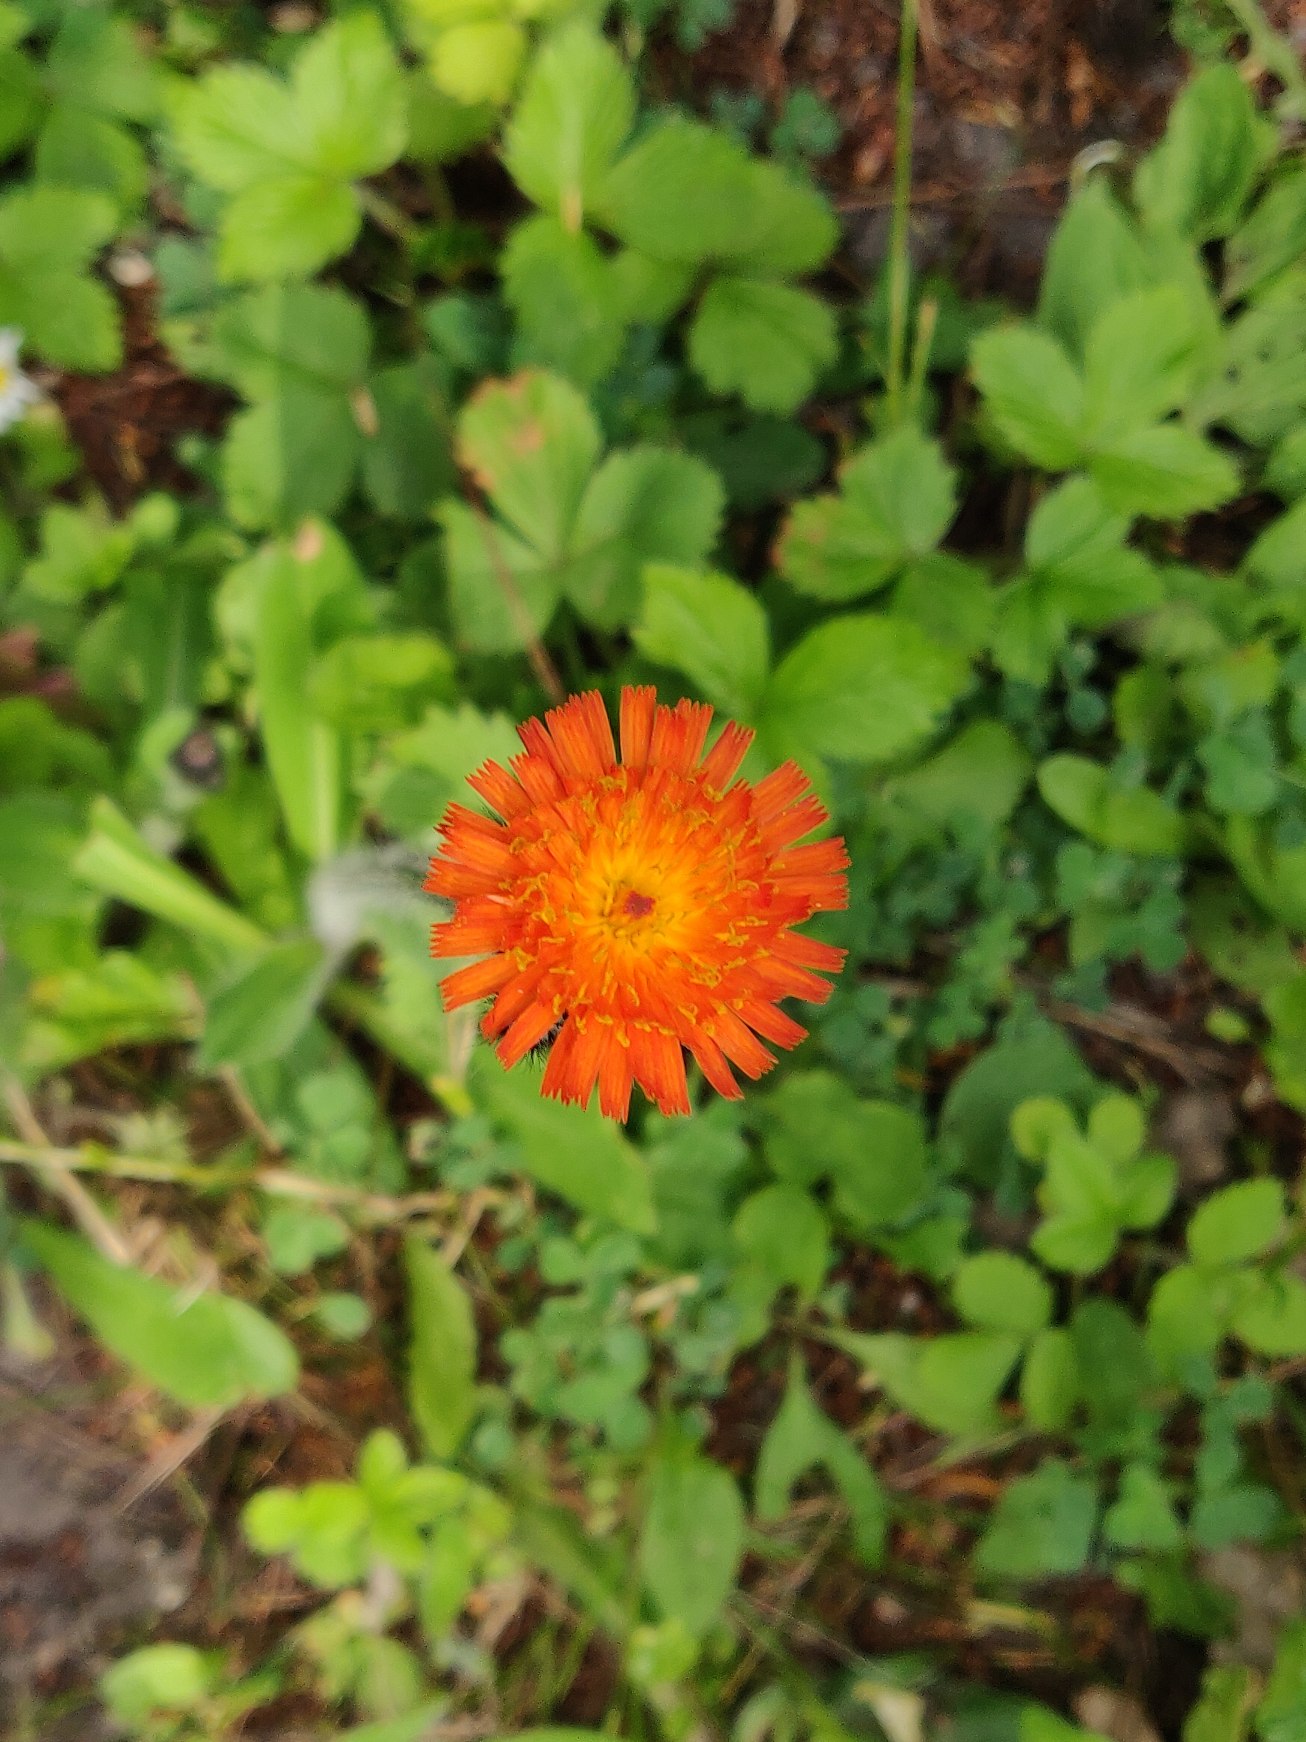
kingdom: Plantae
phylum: Tracheophyta
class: Magnoliopsida
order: Asterales
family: Asteraceae
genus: Pilosella
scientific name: Pilosella aurantiaca
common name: Pomerans-høgeurt
